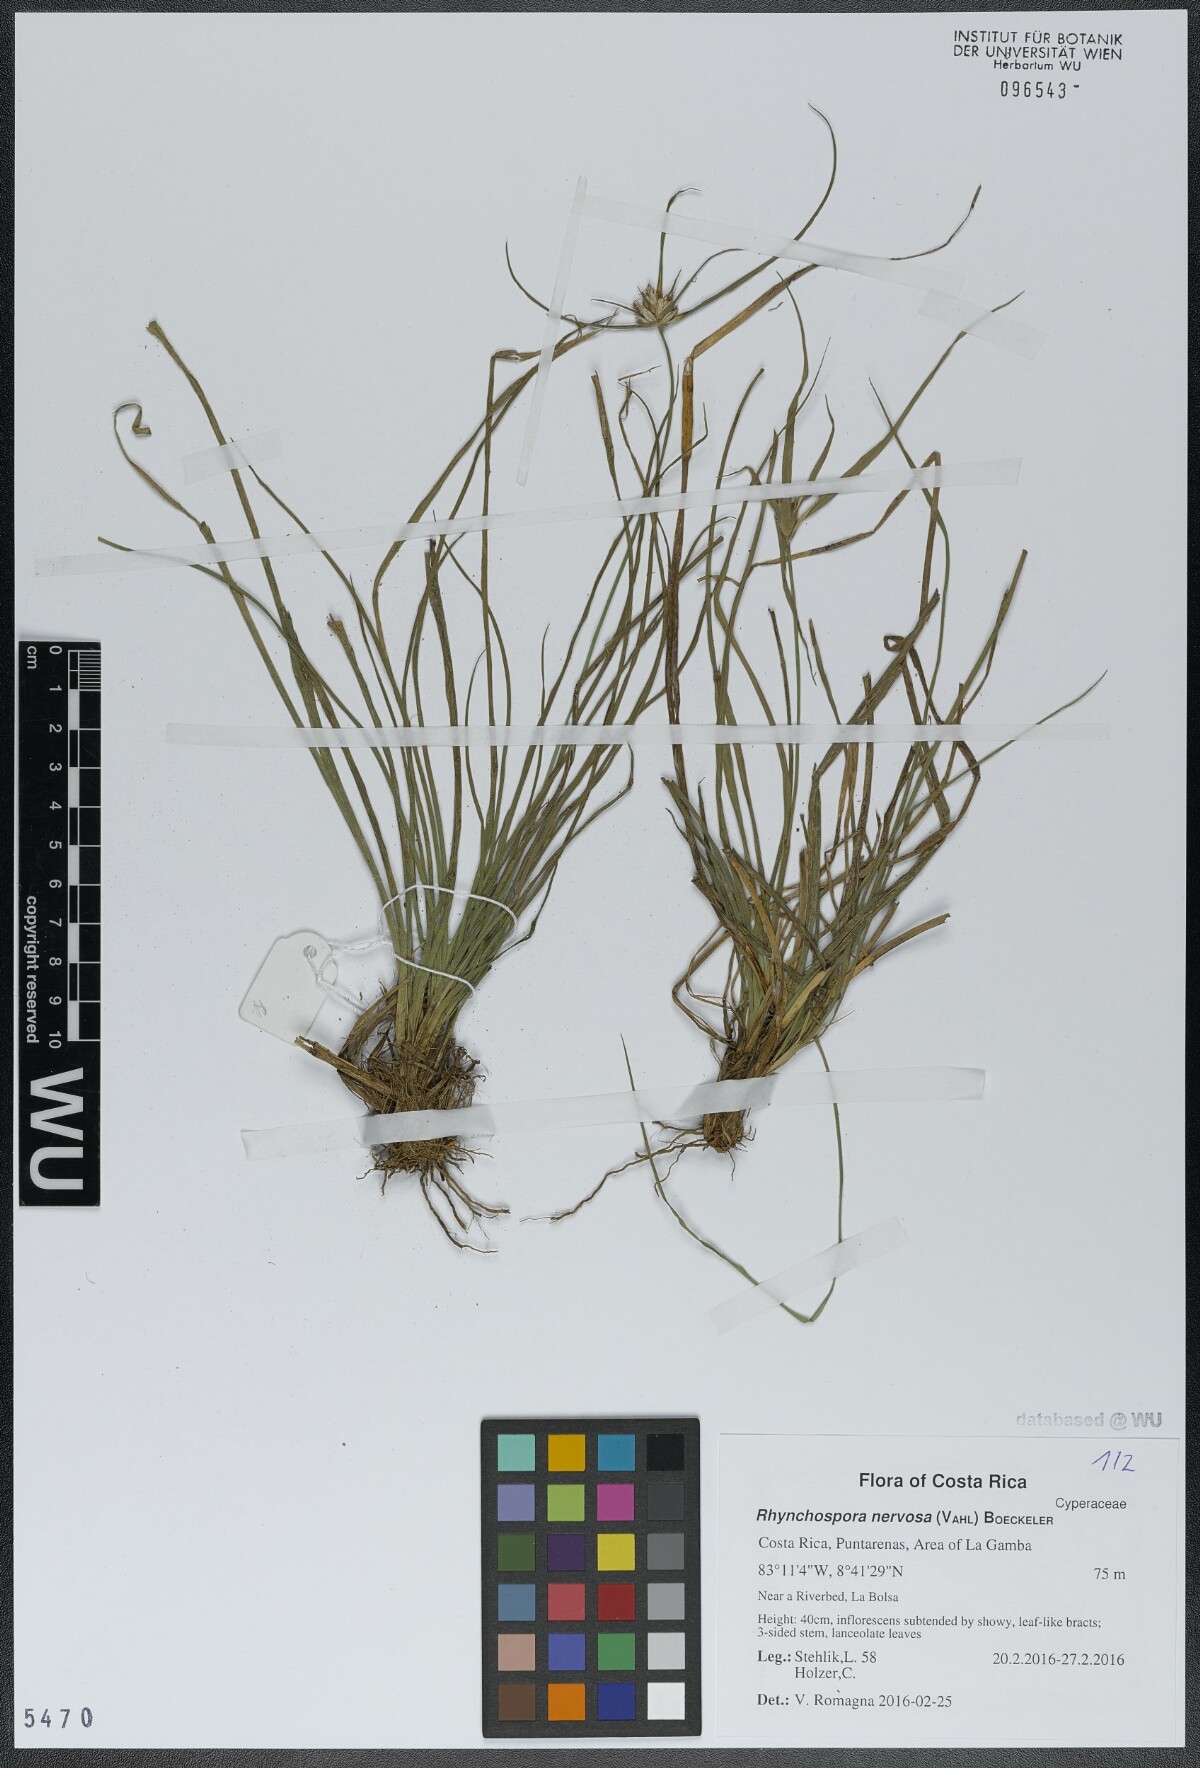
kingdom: Plantae
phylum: Tracheophyta
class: Liliopsida
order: Poales
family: Cyperaceae
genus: Rhynchospora
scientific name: Rhynchospora nervosa
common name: Star sedge
